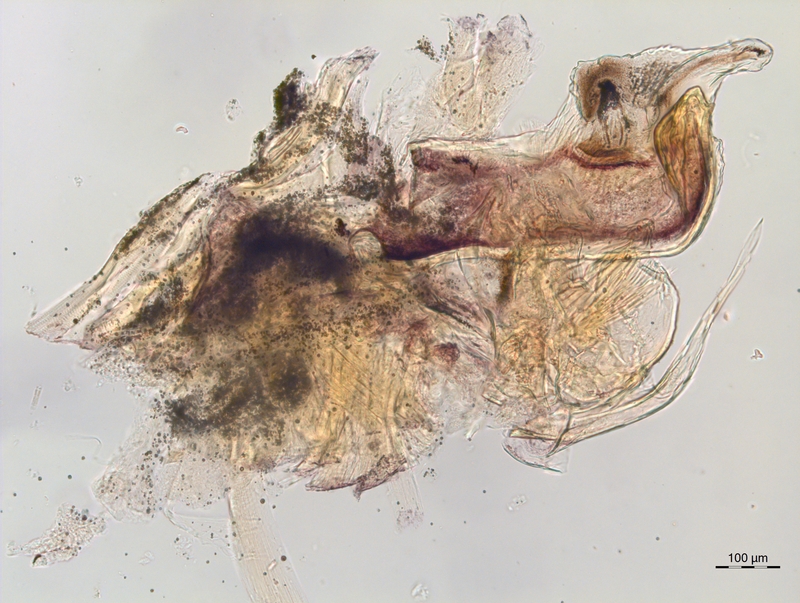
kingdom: Animalia
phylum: Arthropoda
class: Diplopoda
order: Chordeumatida
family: Craspedosomatidae
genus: Craspedosoma
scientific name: Craspedosoma alemannicum
